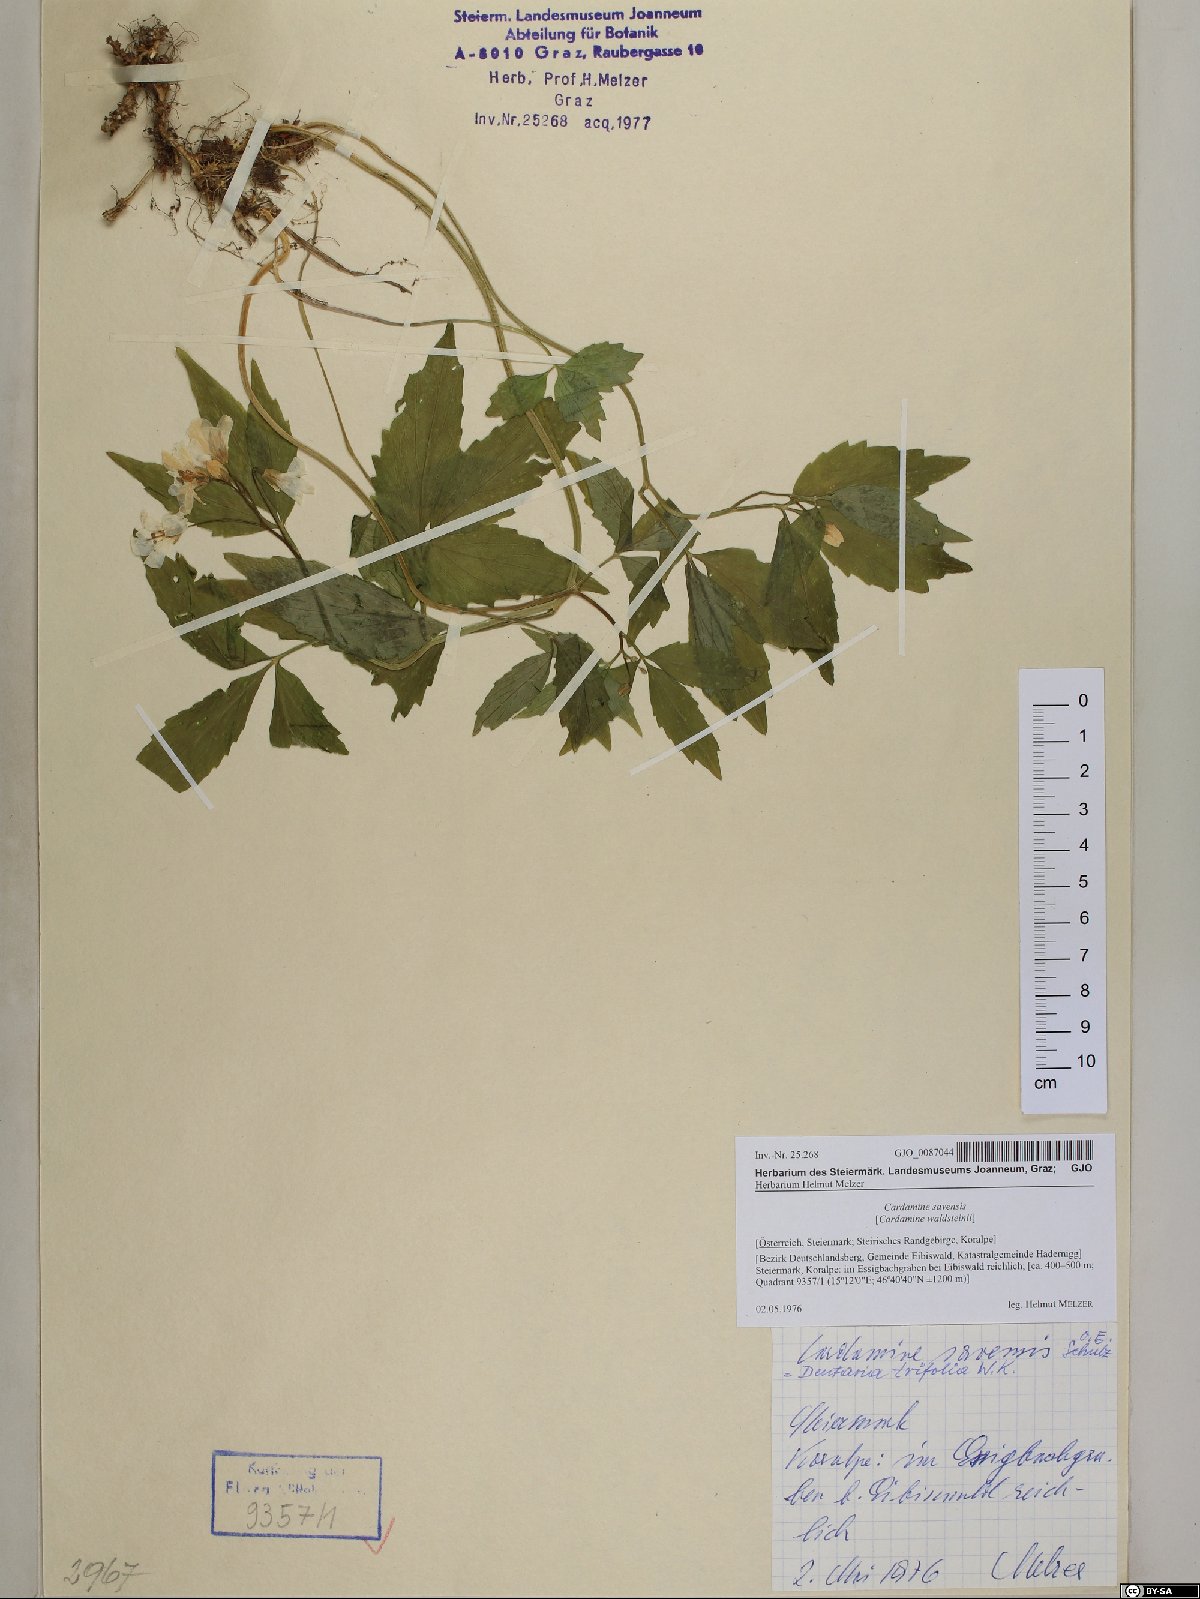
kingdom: Plantae
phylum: Tracheophyta
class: Magnoliopsida
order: Brassicales
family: Brassicaceae
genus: Cardamine
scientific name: Cardamine waldsteinii
